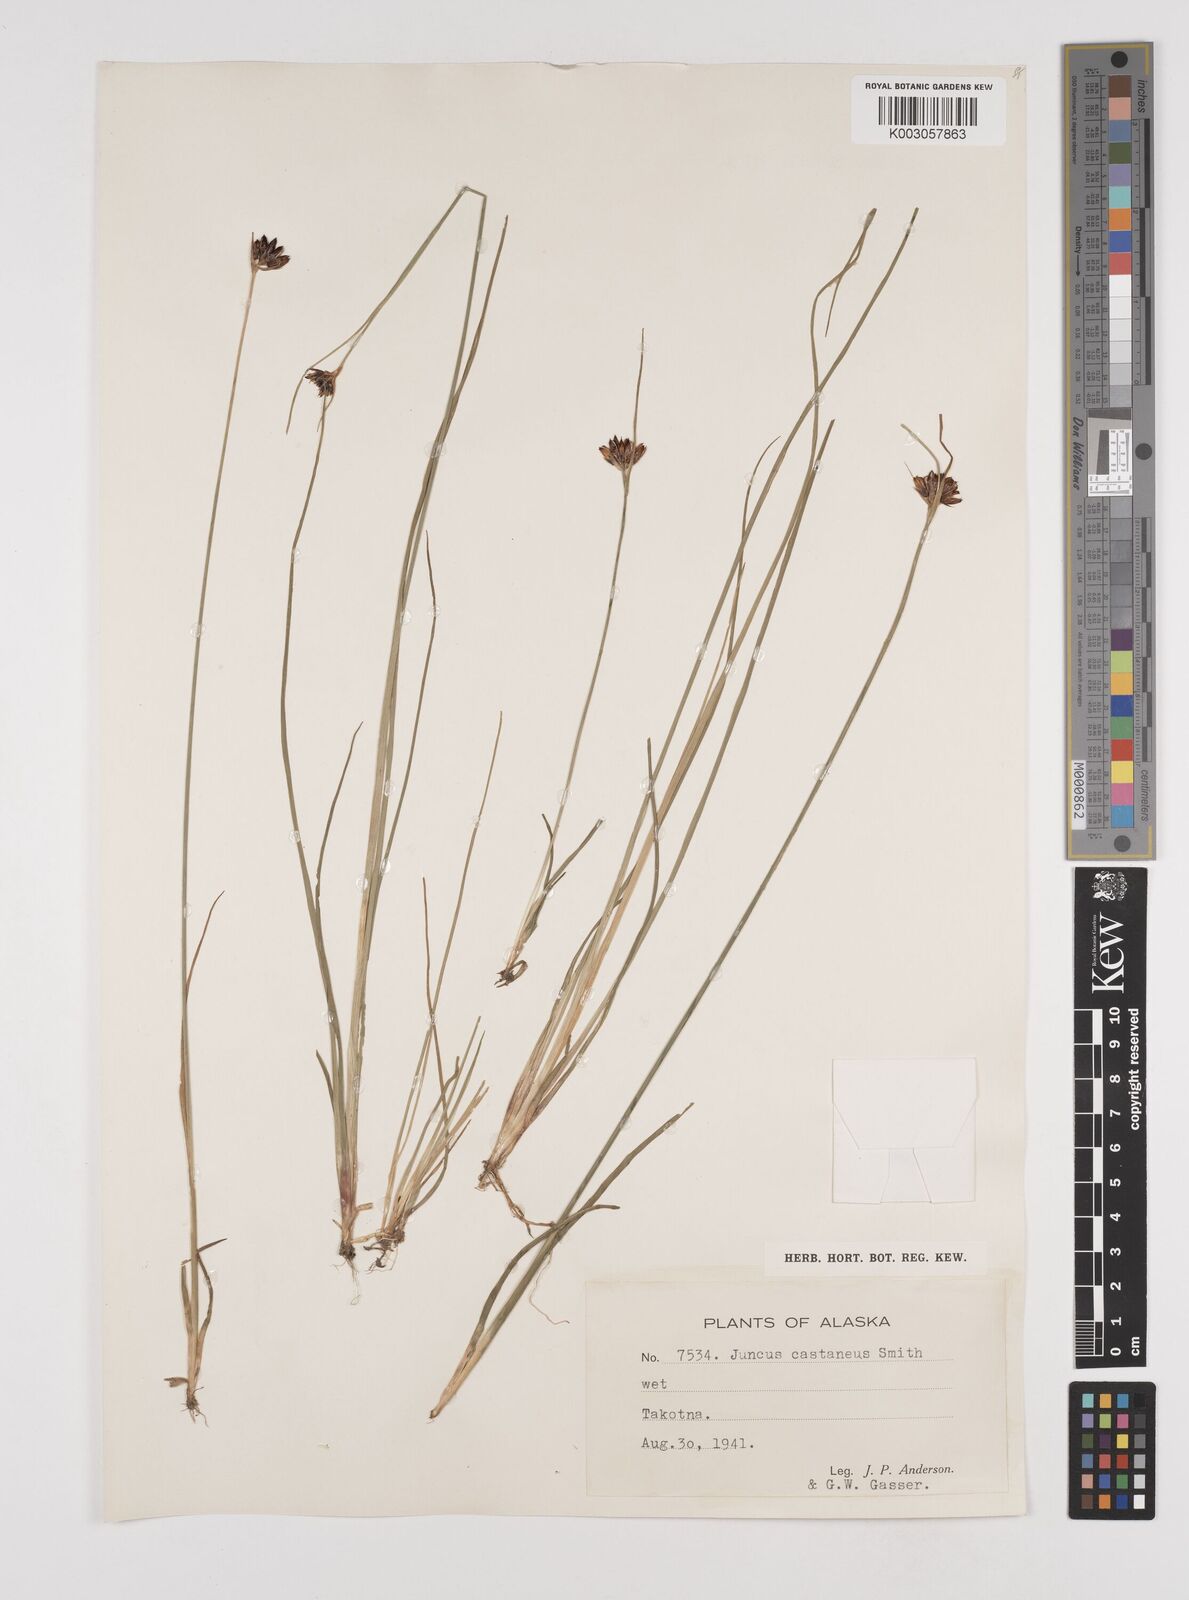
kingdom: Plantae
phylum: Tracheophyta
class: Liliopsida
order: Poales
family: Juncaceae
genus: Juncus
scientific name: Juncus castaneus
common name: Chestnut rush
